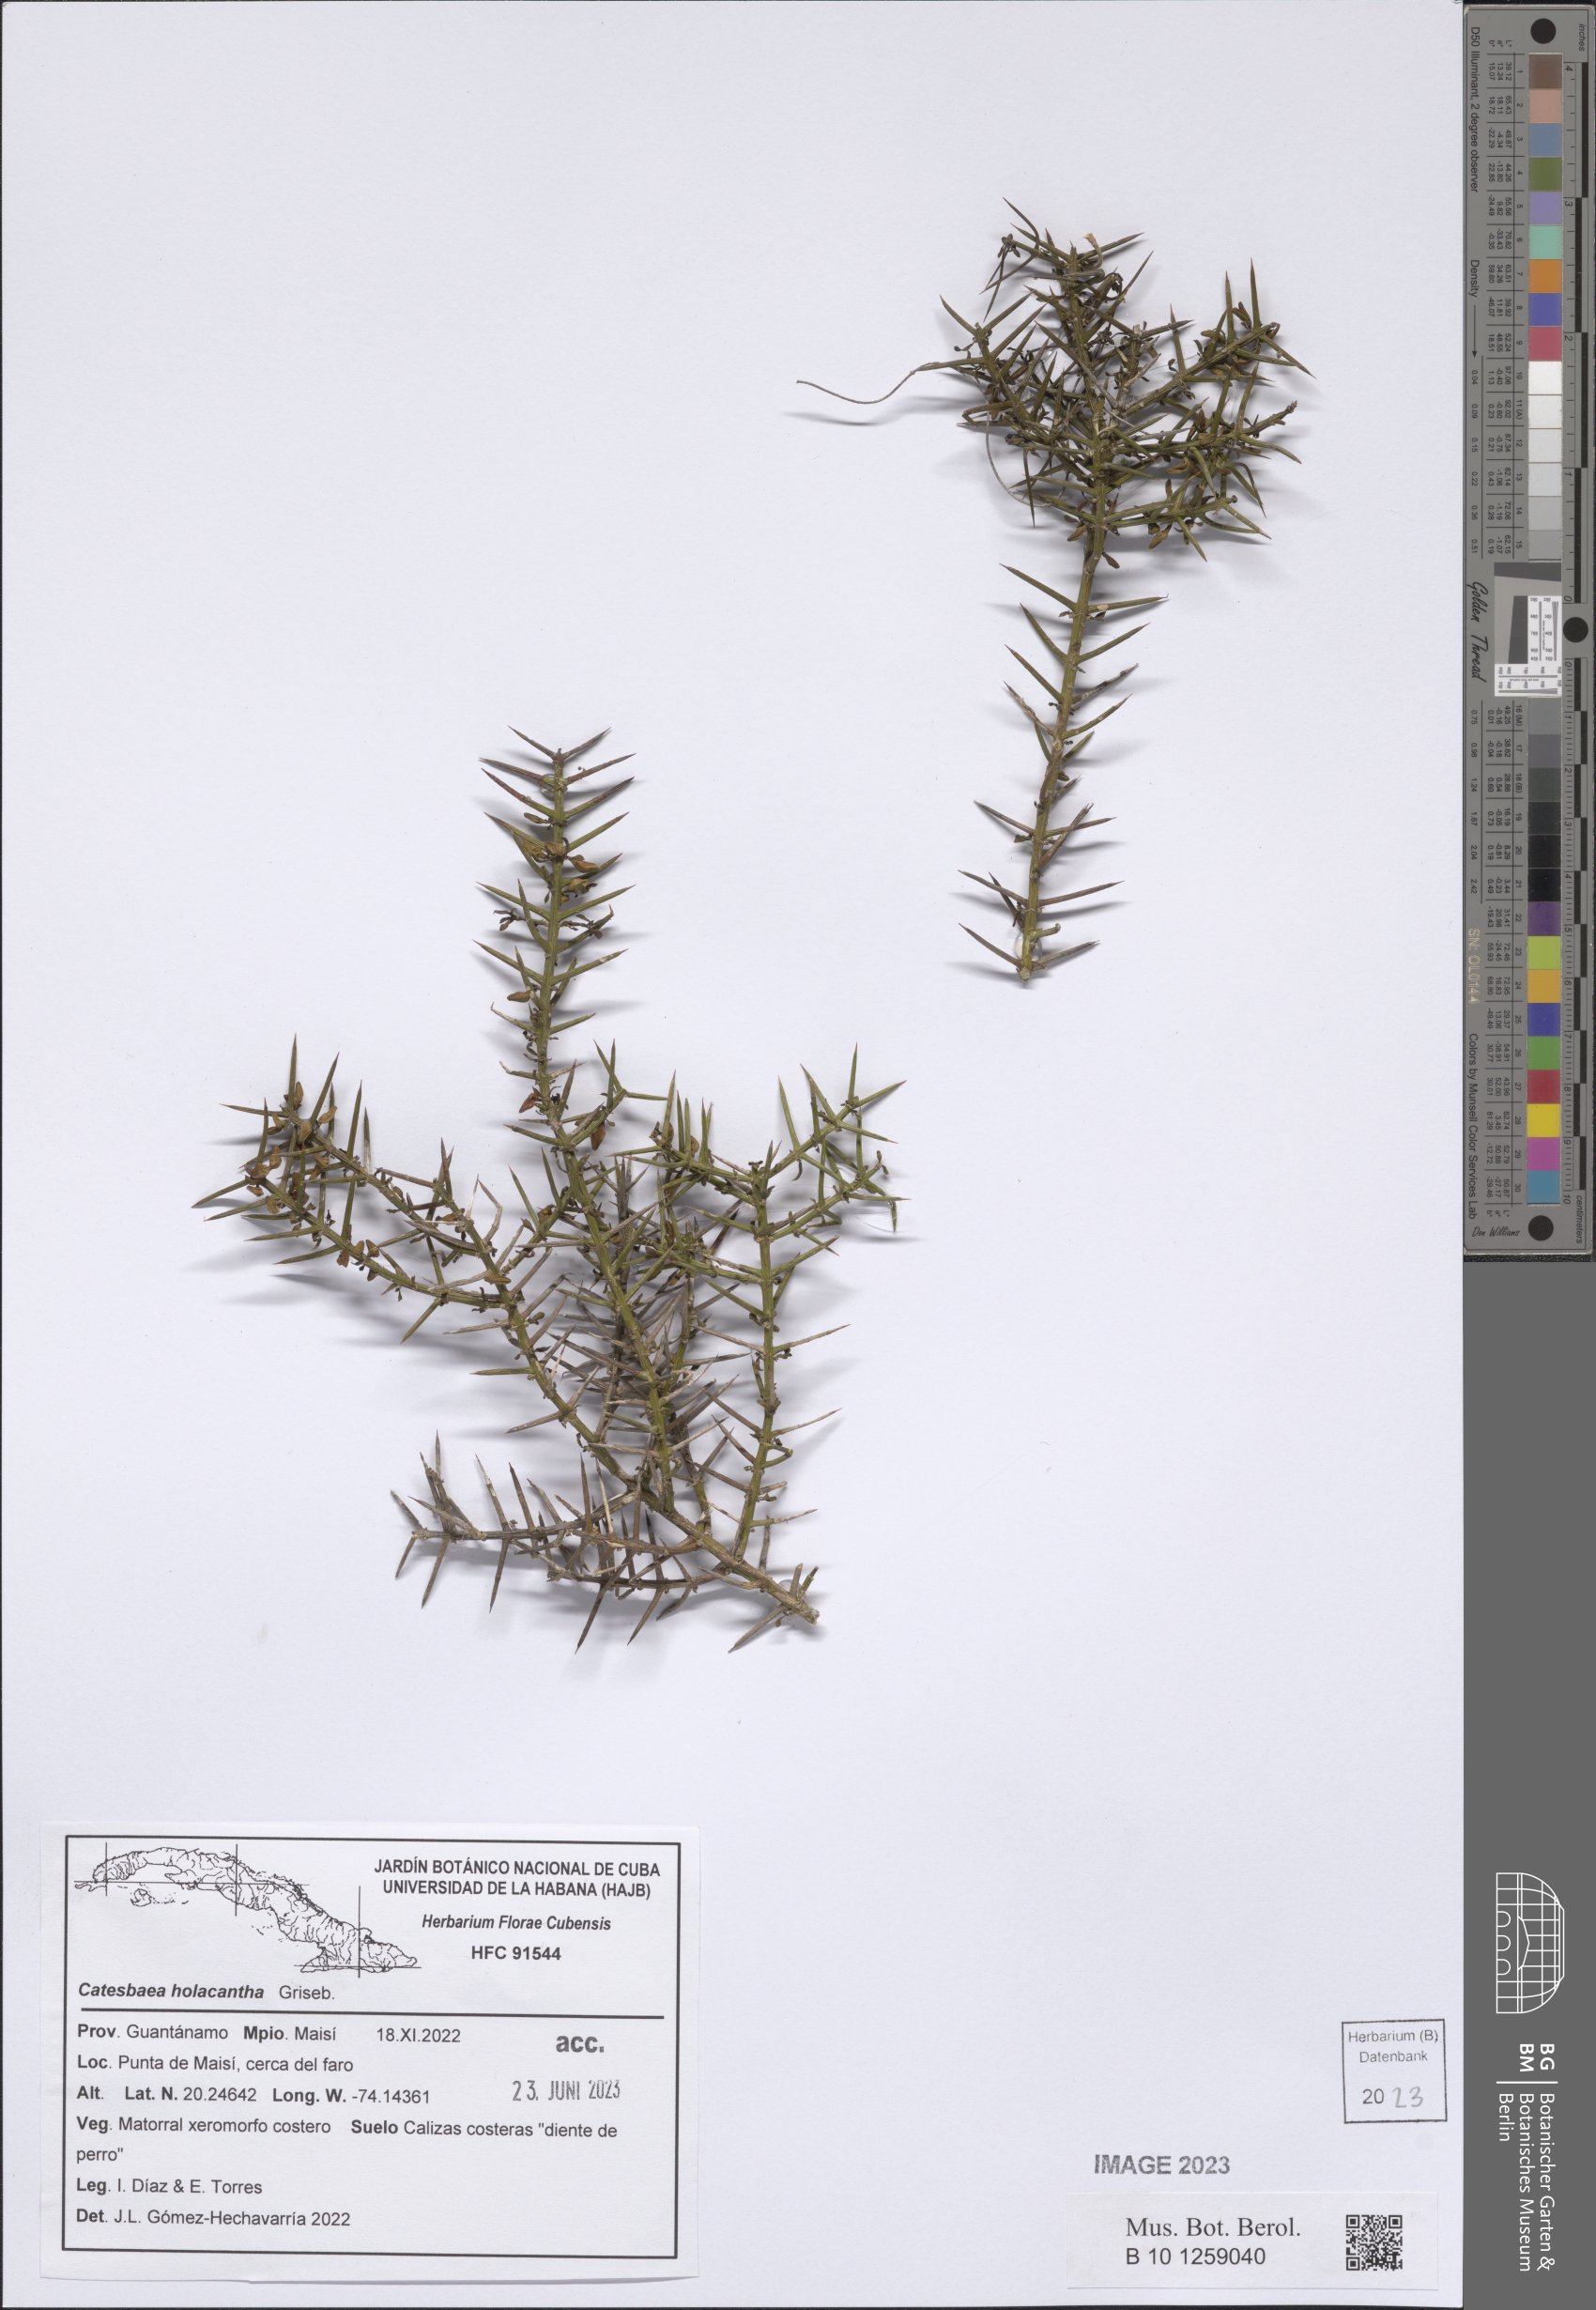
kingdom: Plantae
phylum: Tracheophyta
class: Magnoliopsida
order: Gentianales
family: Rubiaceae
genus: Catesbaea
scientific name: Catesbaea holacantha
